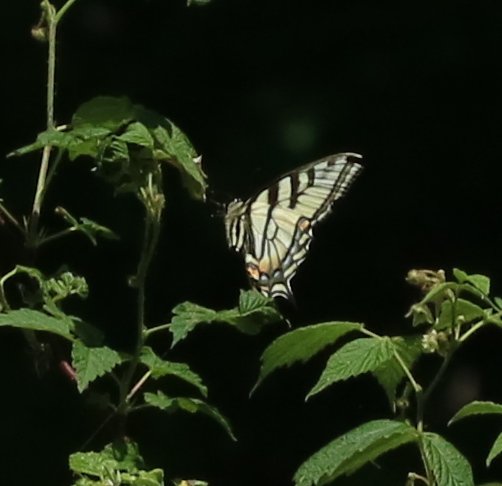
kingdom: Animalia
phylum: Arthropoda
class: Insecta
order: Lepidoptera
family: Papilionidae
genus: Pterourus
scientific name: Pterourus canadensis
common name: Canadian Tiger Swallowtail
